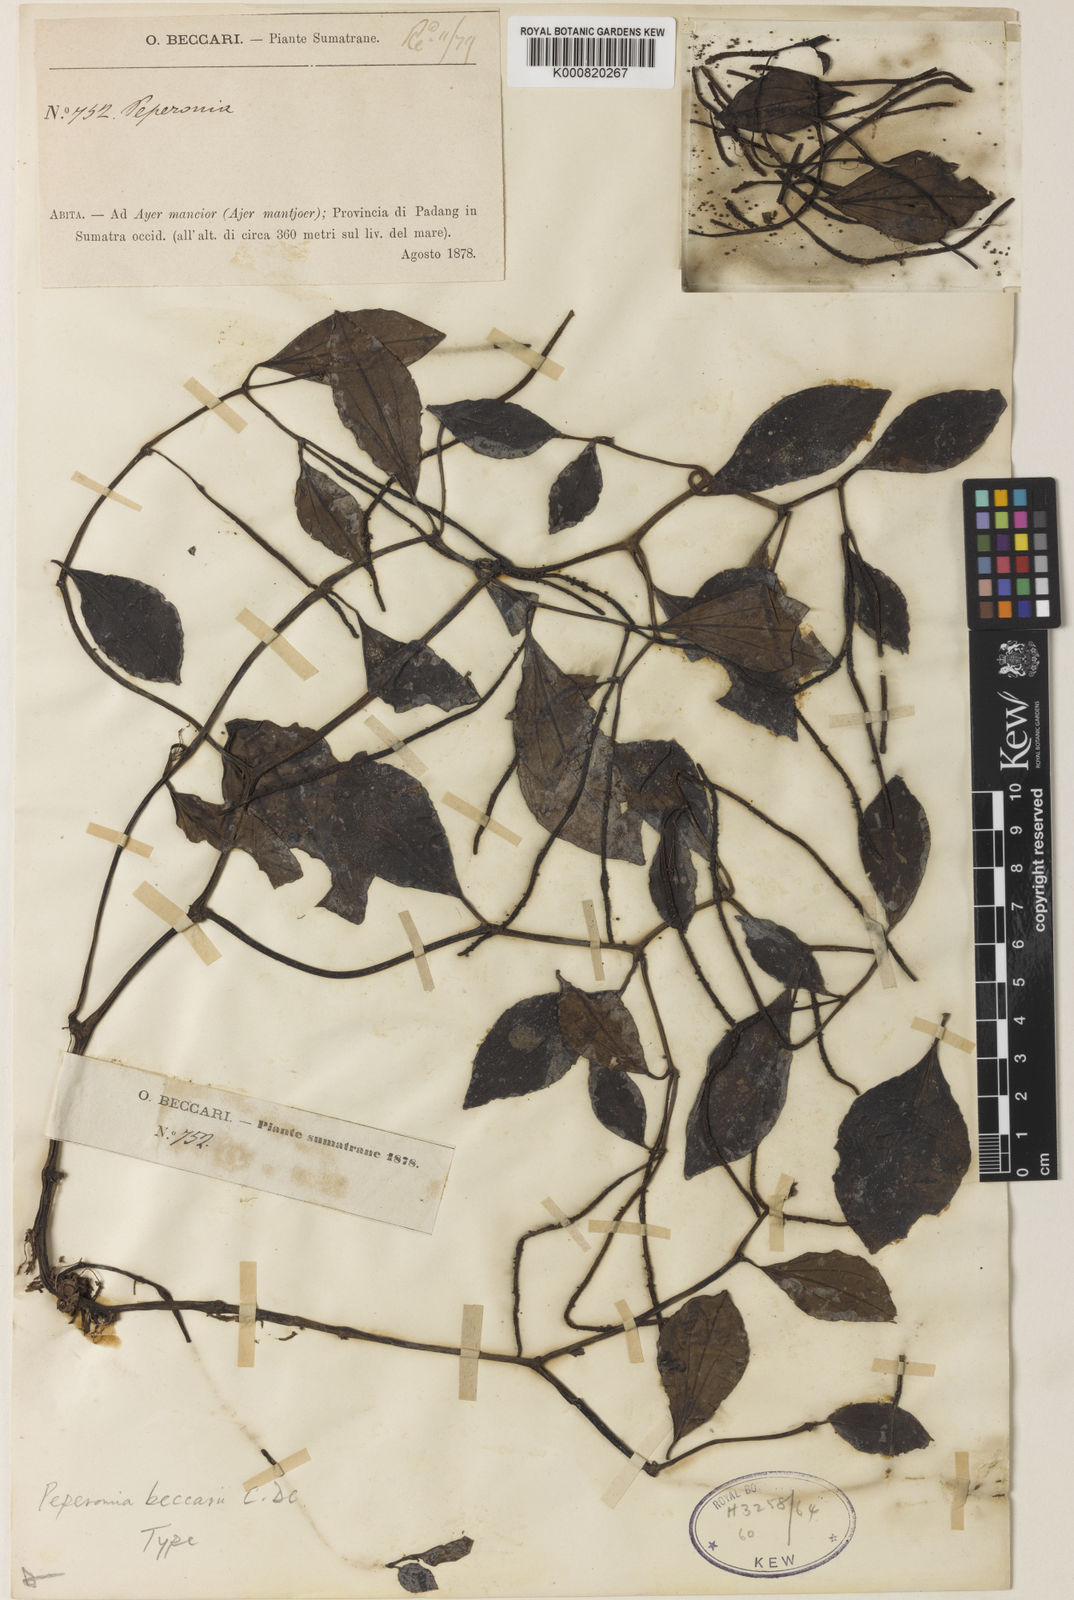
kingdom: Plantae
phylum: Tracheophyta
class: Magnoliopsida
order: Piperales
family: Piperaceae
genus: Peperomia
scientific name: Peperomia beccarii
